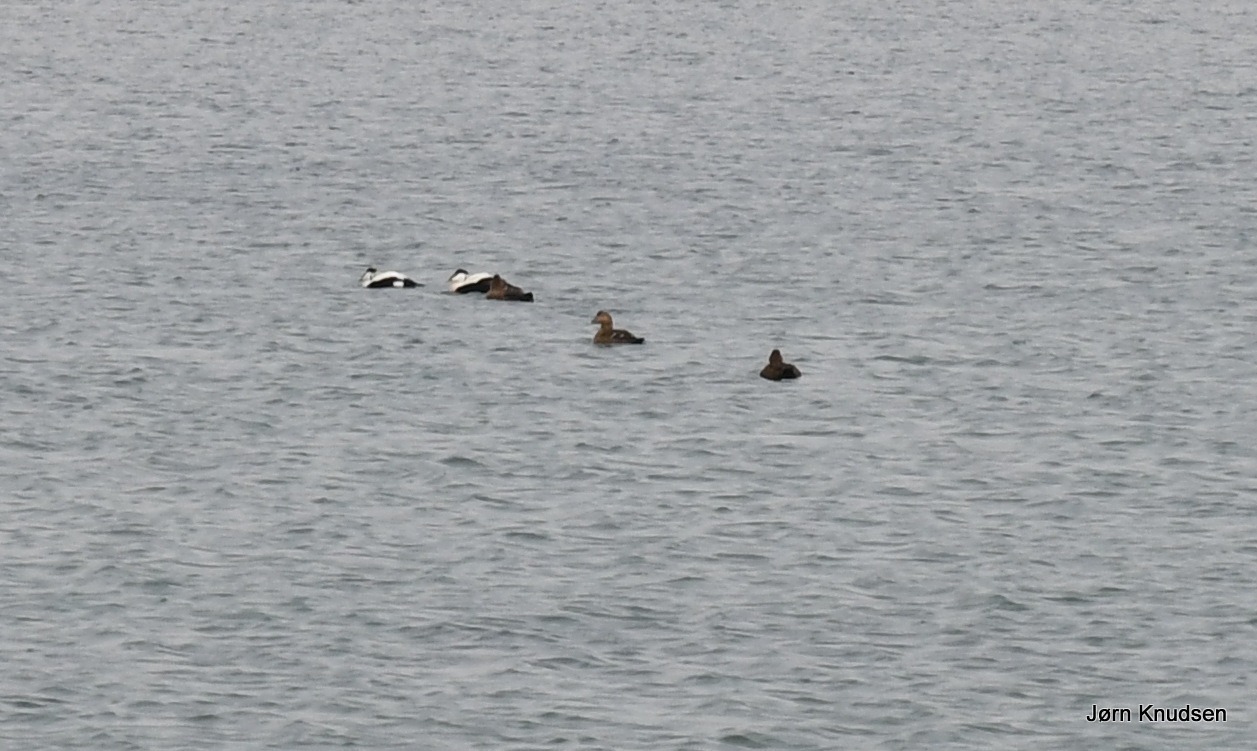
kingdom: Animalia
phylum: Chordata
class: Aves
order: Anseriformes
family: Anatidae
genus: Somateria
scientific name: Somateria mollissima
